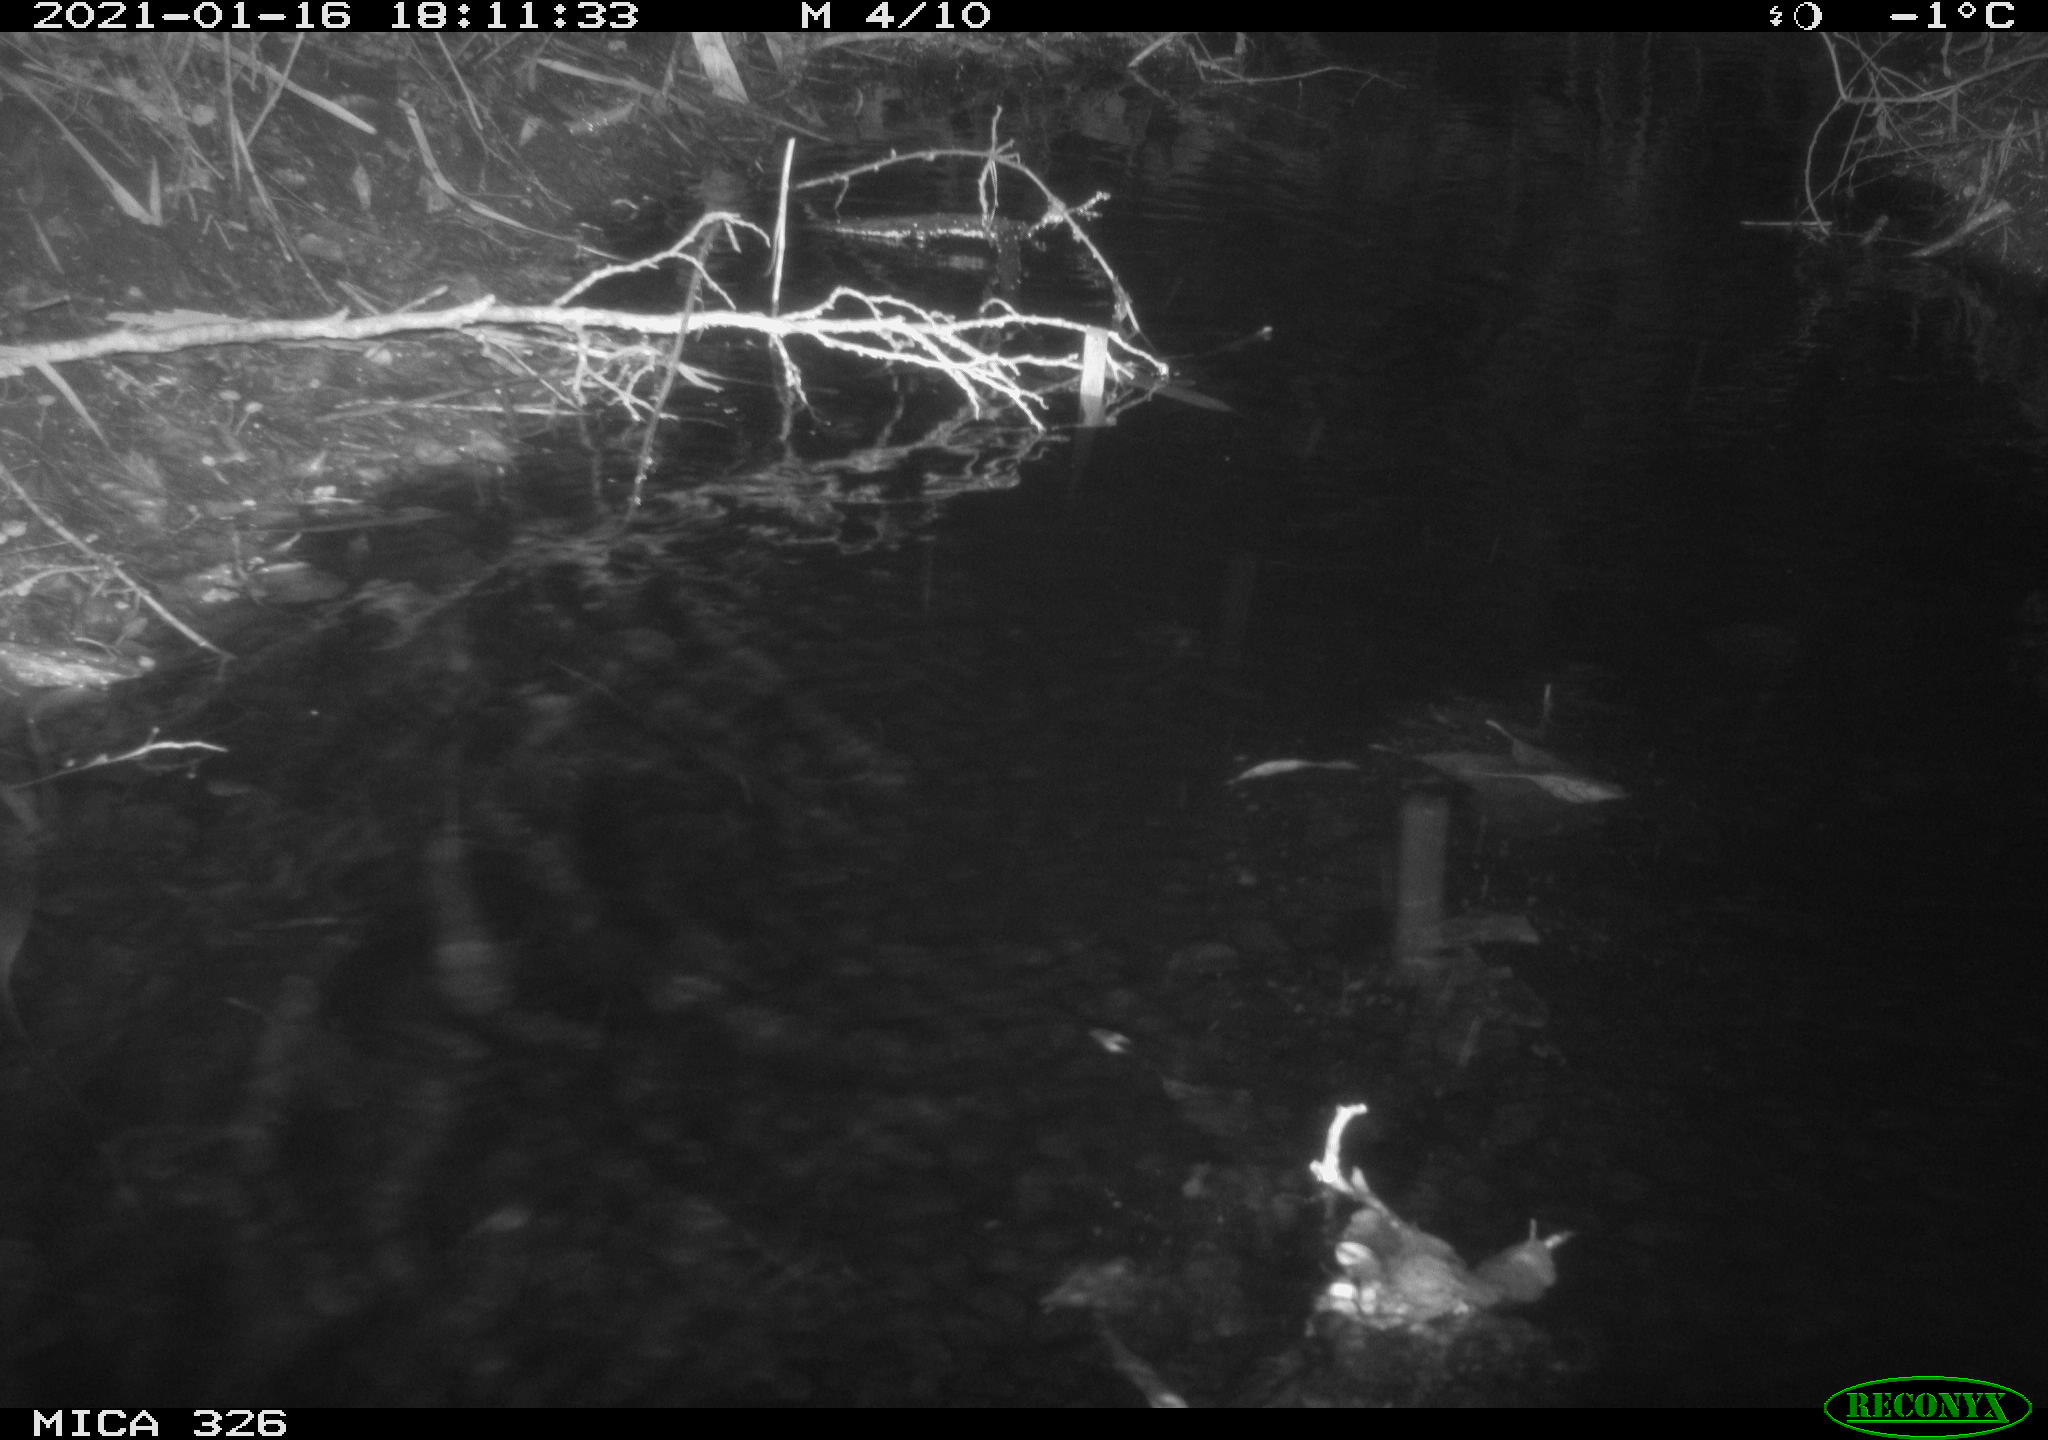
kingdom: Animalia
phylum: Chordata
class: Mammalia
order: Rodentia
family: Myocastoridae
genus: Myocastor
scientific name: Myocastor coypus
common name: Coypu
